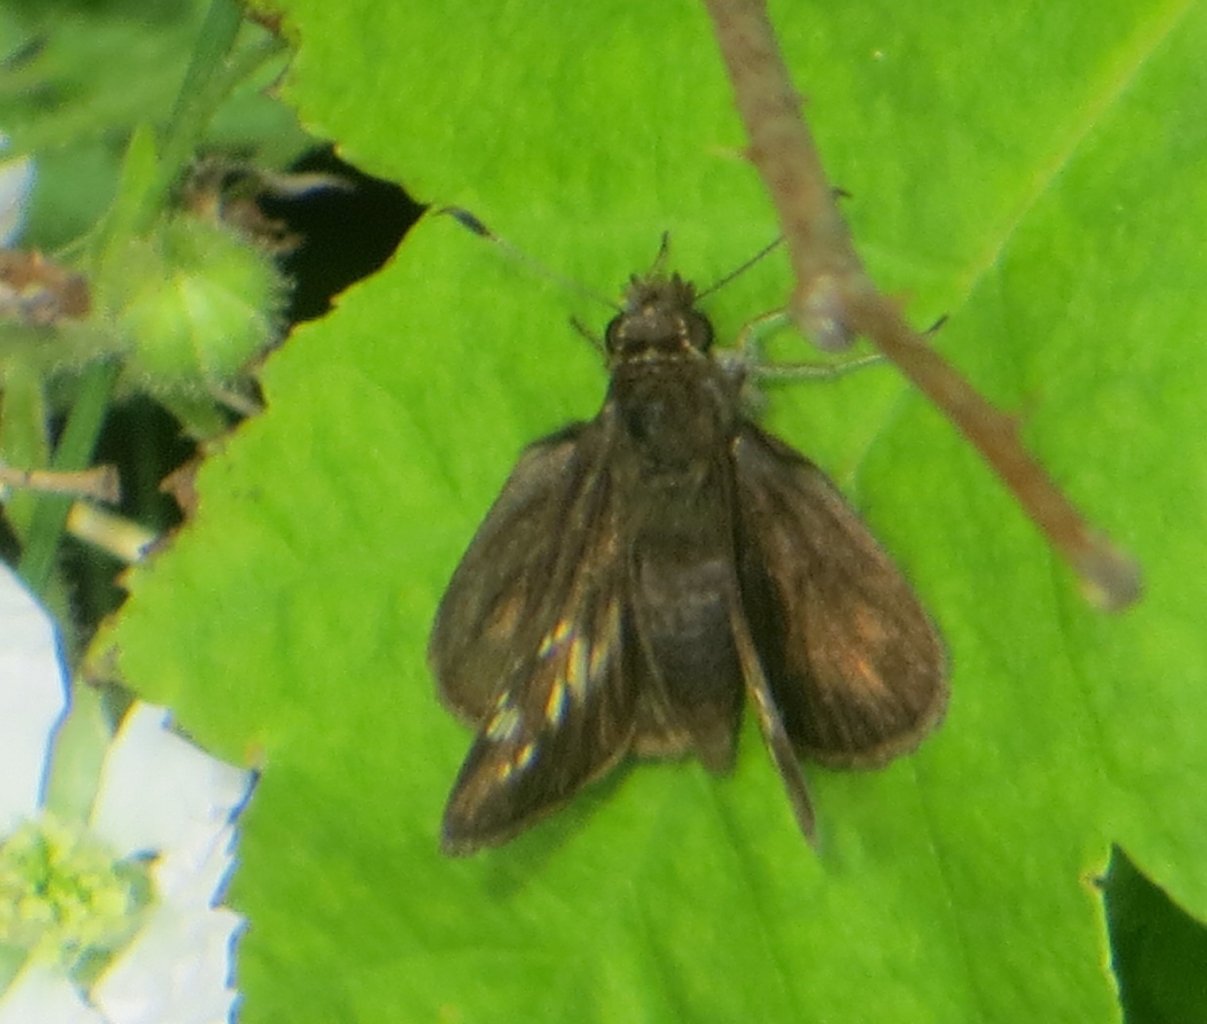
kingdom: Animalia
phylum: Arthropoda
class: Insecta
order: Lepidoptera
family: Hesperiidae
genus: Lon
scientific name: Lon hobomok
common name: Hobomok Skipper
